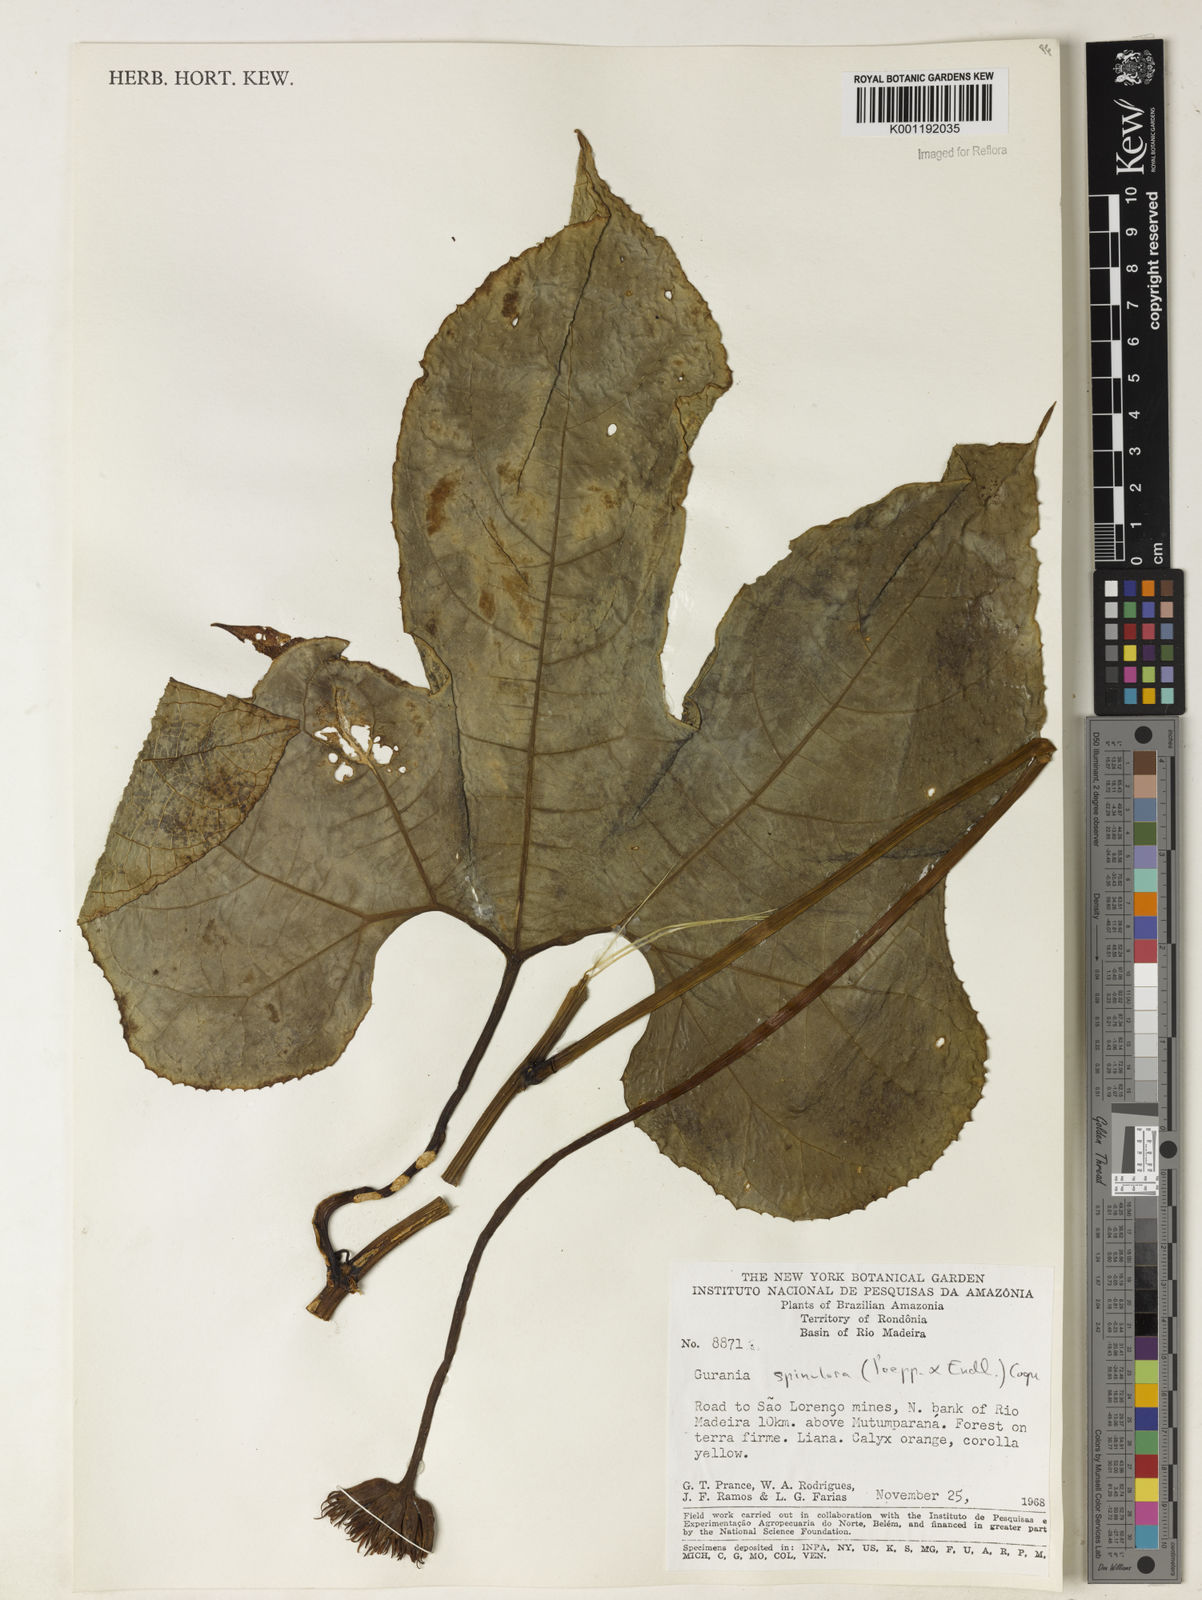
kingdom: Plantae
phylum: Tracheophyta
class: Magnoliopsida
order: Cucurbitales
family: Cucurbitaceae
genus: Gurania
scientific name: Gurania lobata
